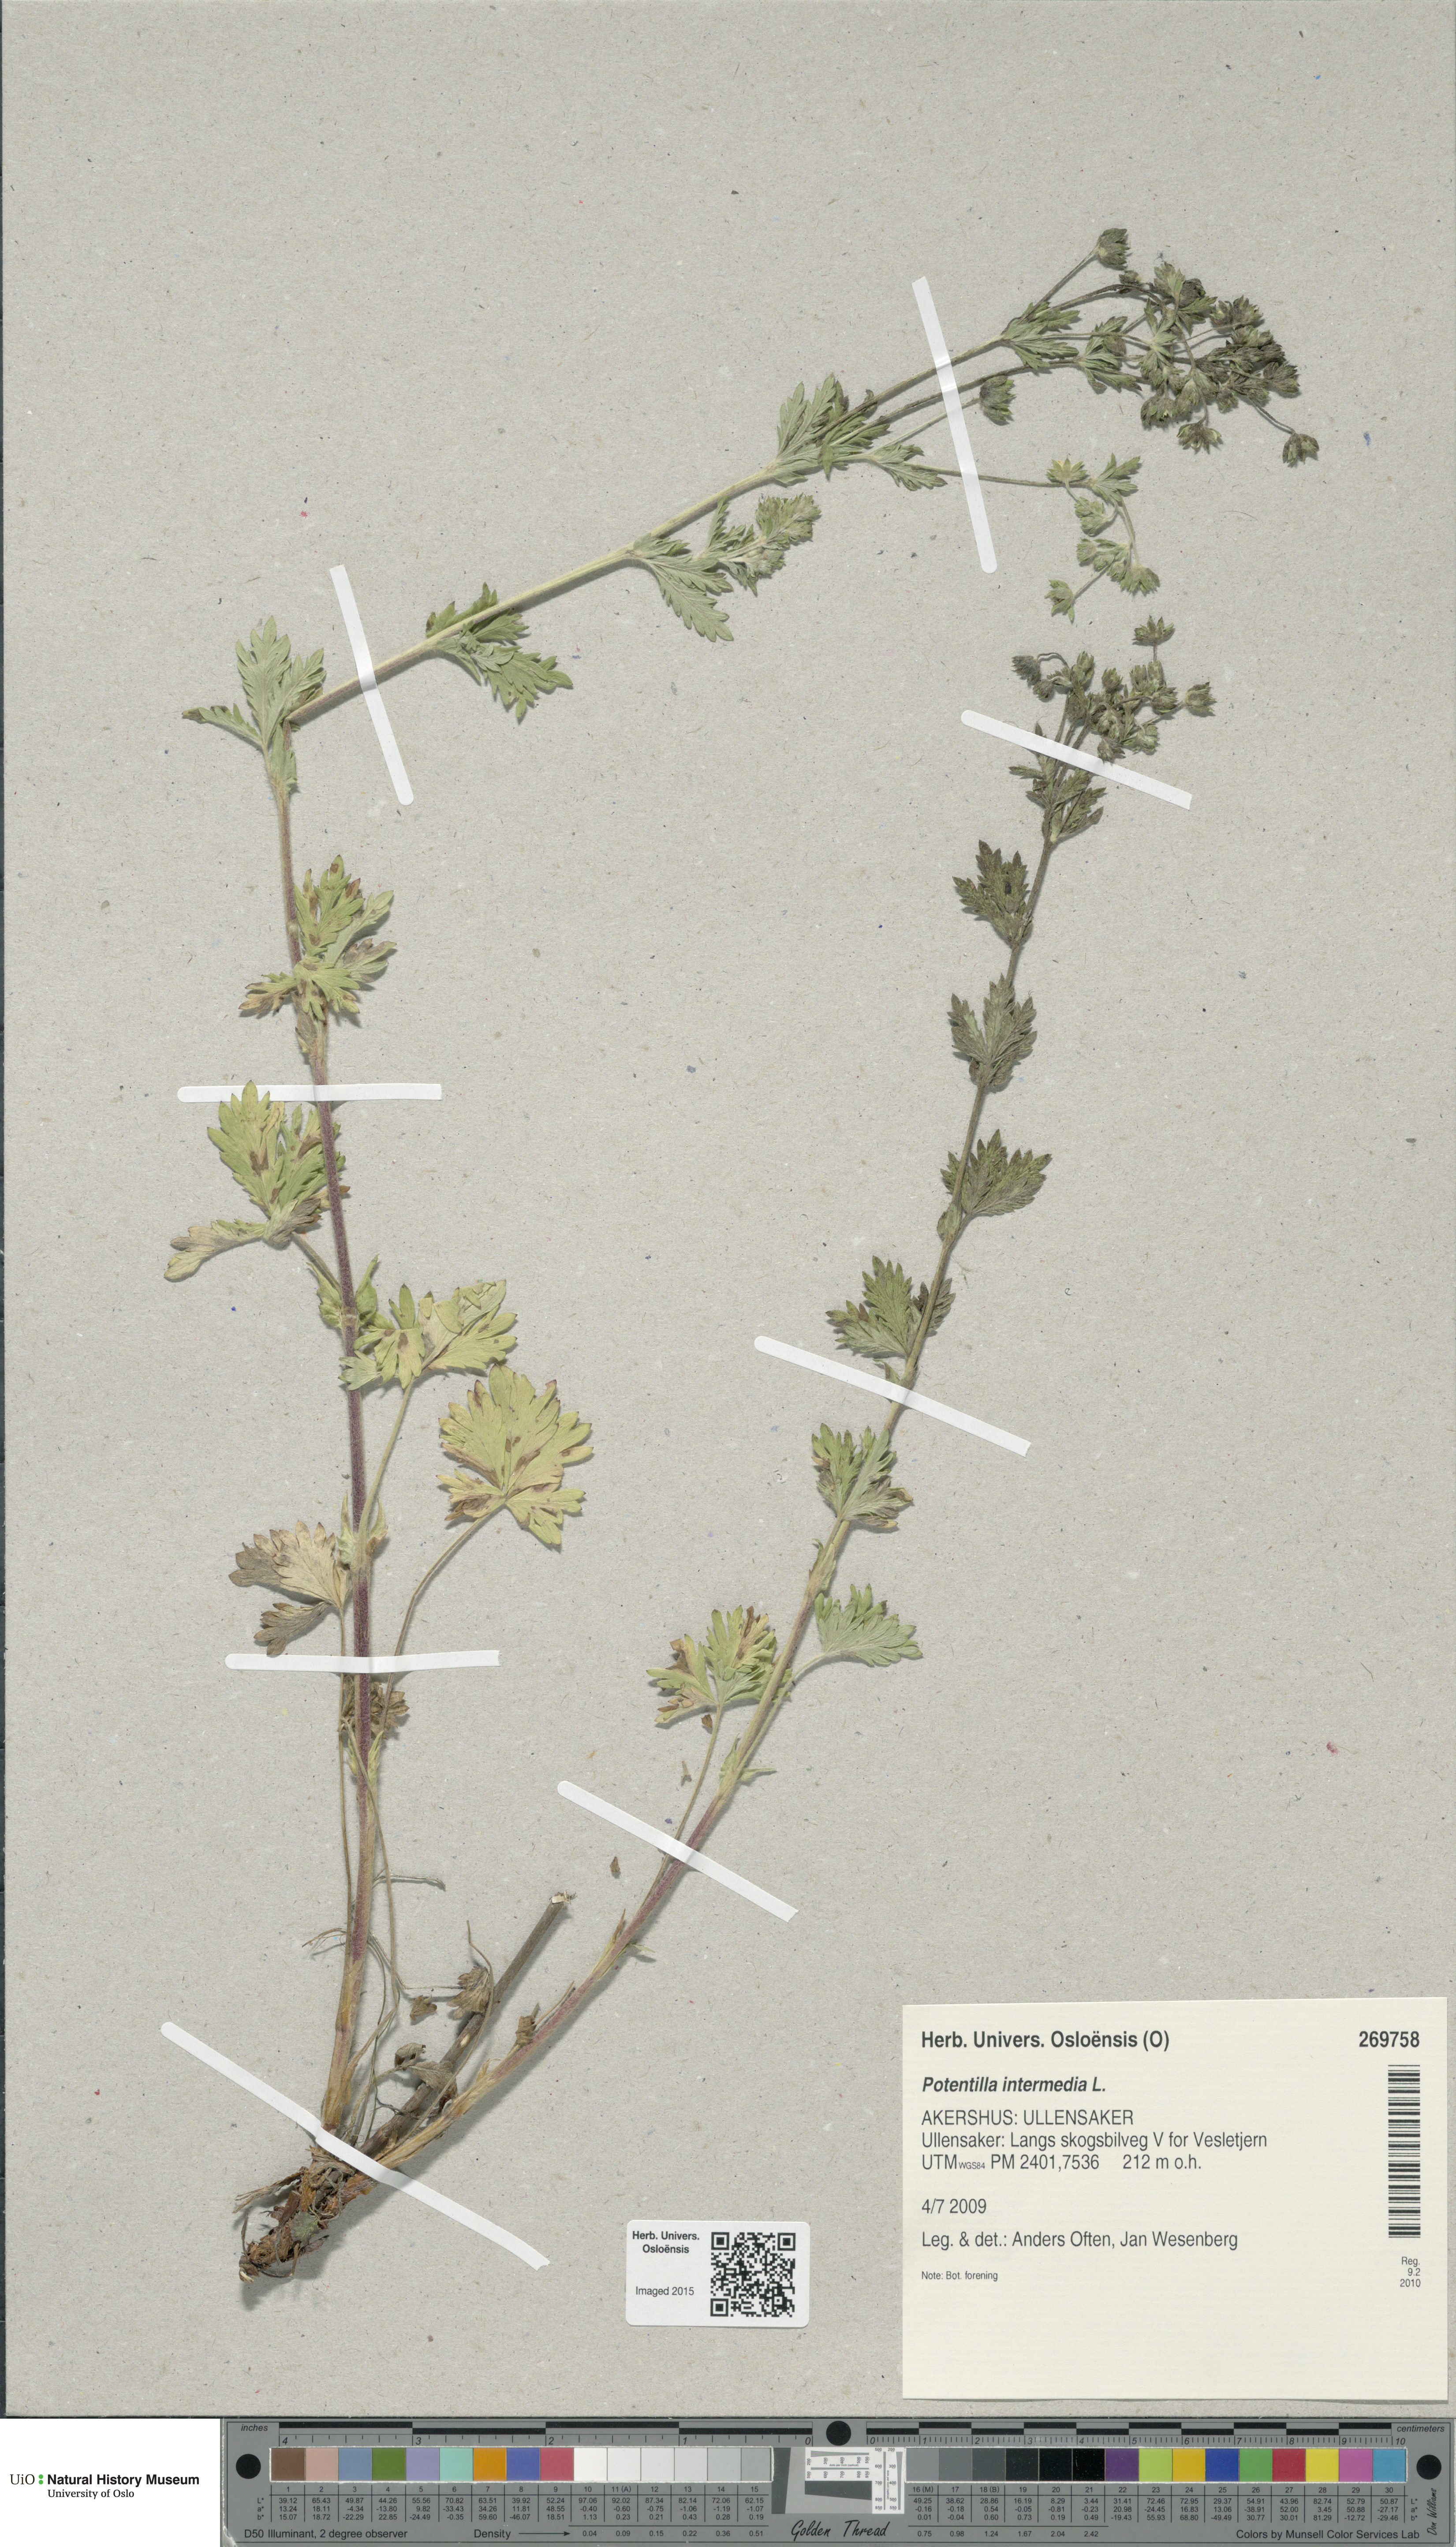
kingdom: Plantae
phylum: Tracheophyta
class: Magnoliopsida
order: Rosales
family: Rosaceae
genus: Potentilla
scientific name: Potentilla intermedia
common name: Downy cinquefoil
